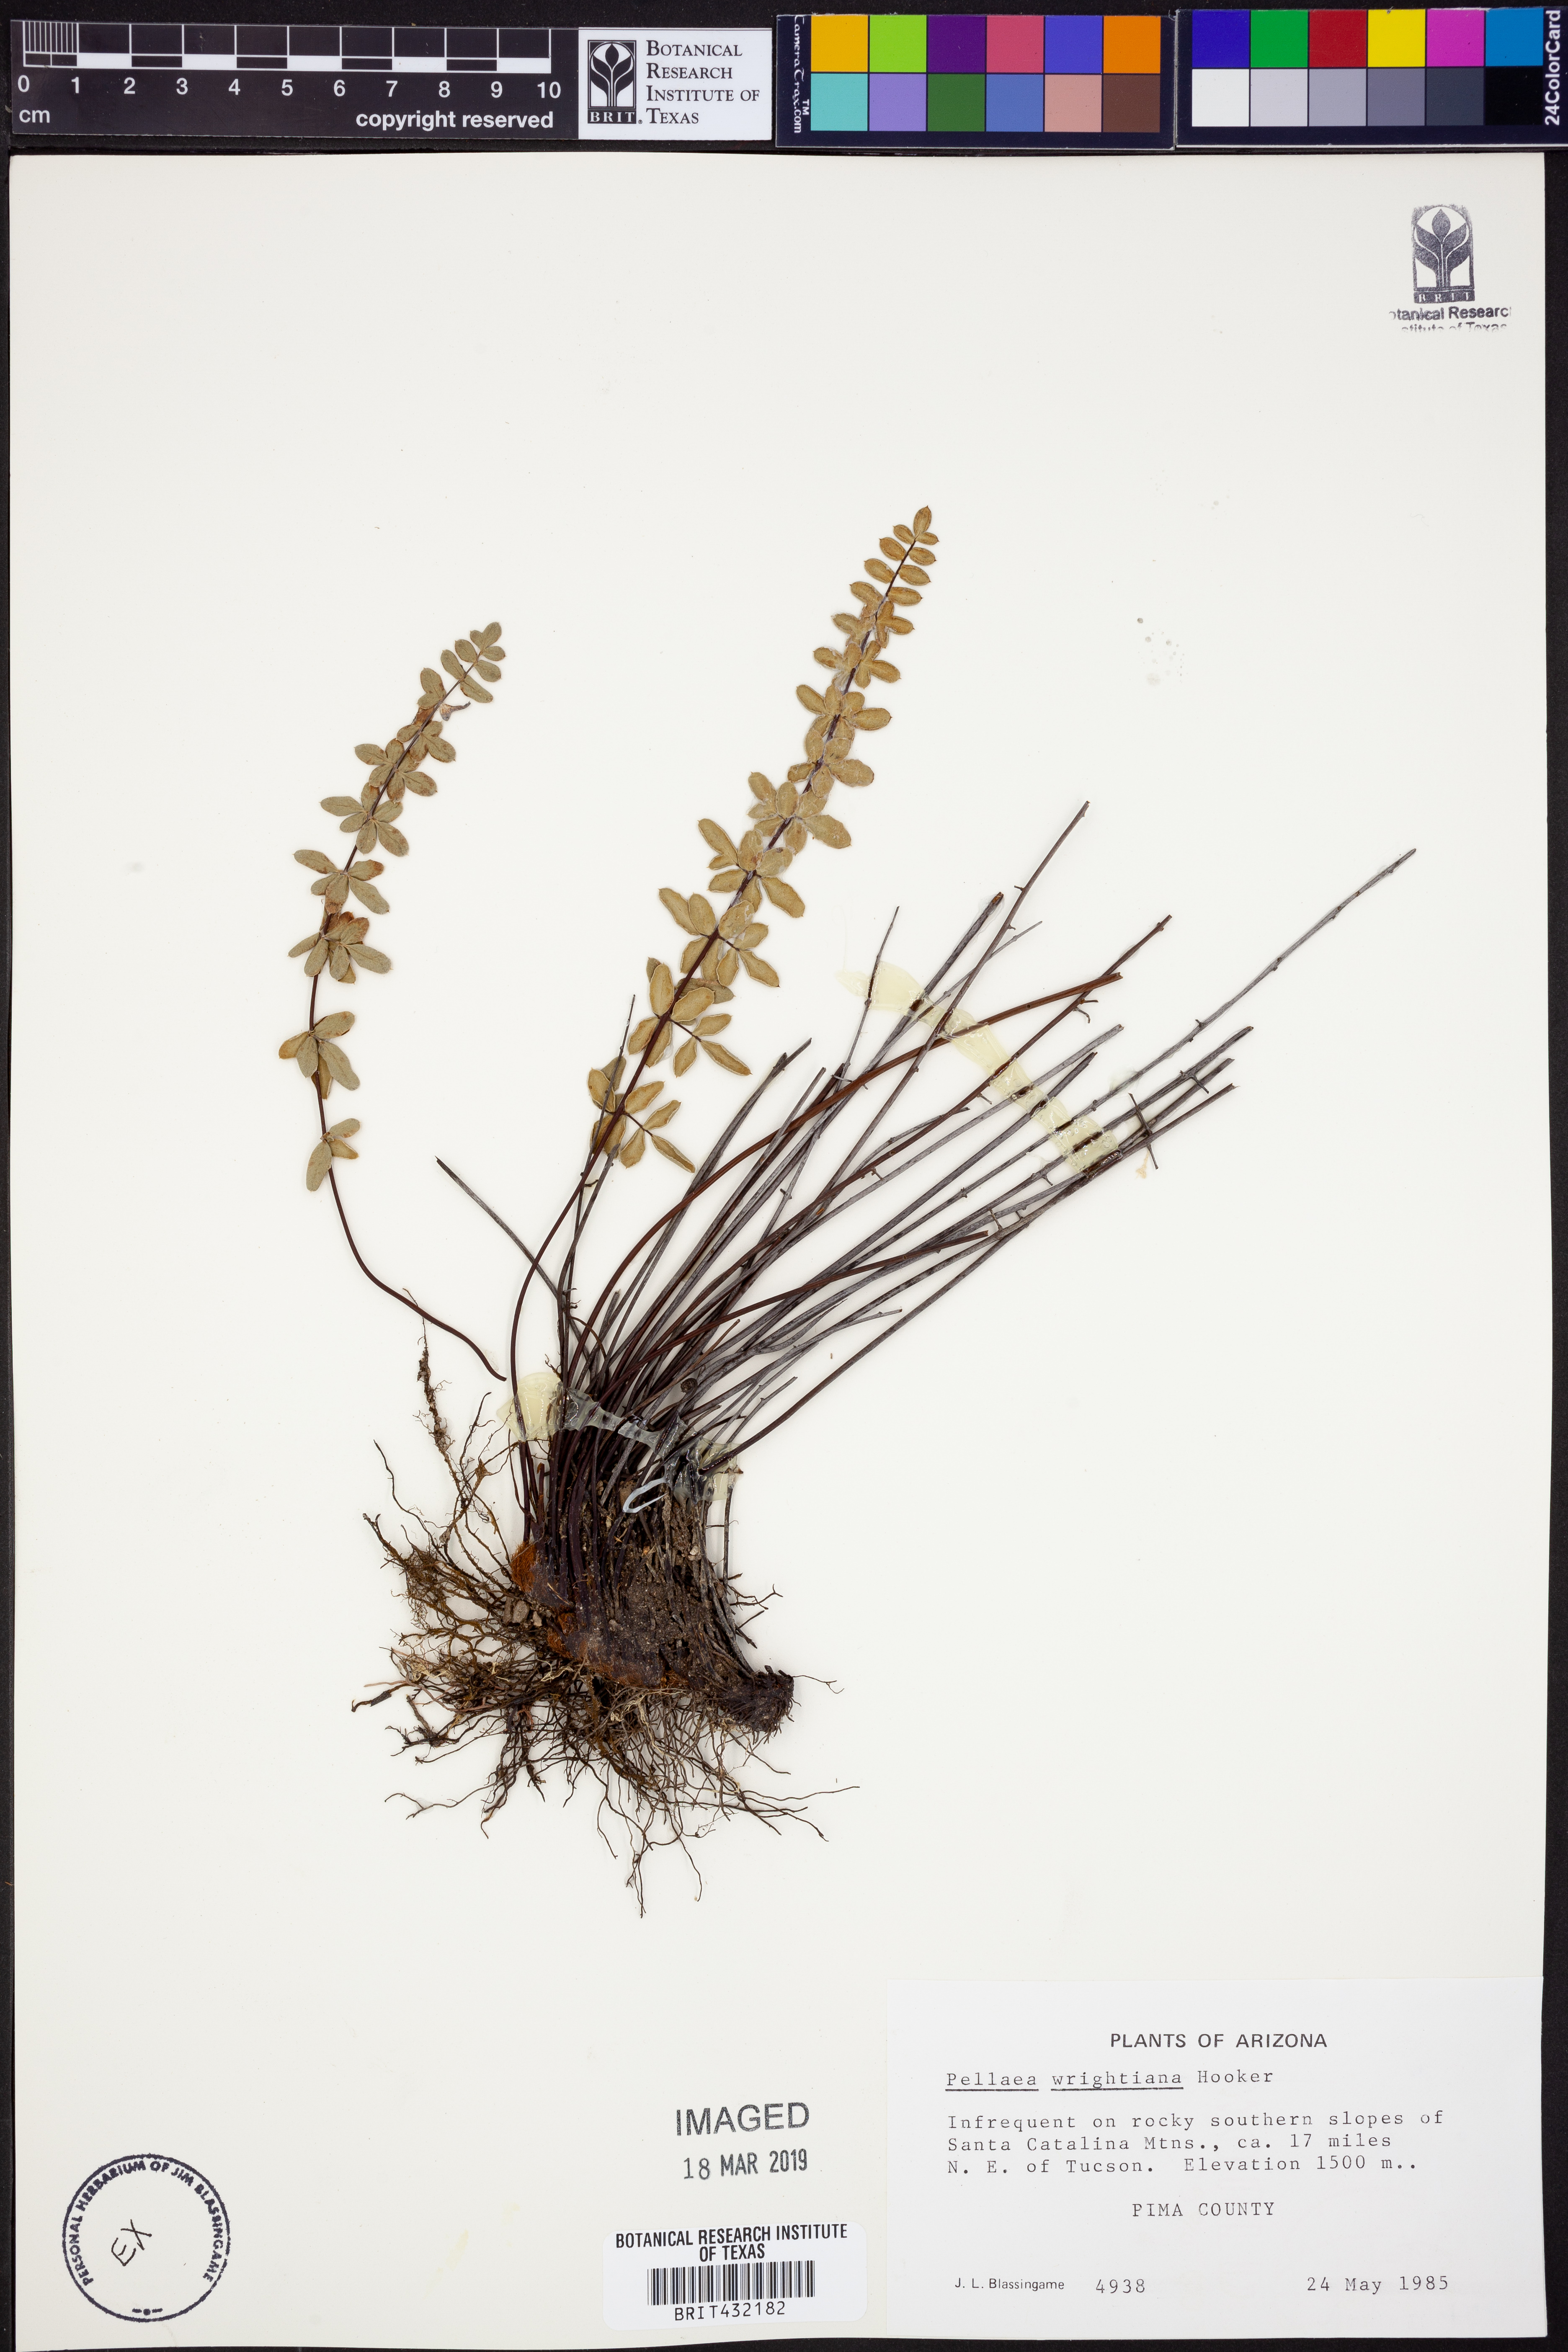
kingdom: Plantae
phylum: Tracheophyta
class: Polypodiopsida
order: Polypodiales
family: Pteridaceae
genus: Pellaea
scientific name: Pellaea wrightiana
